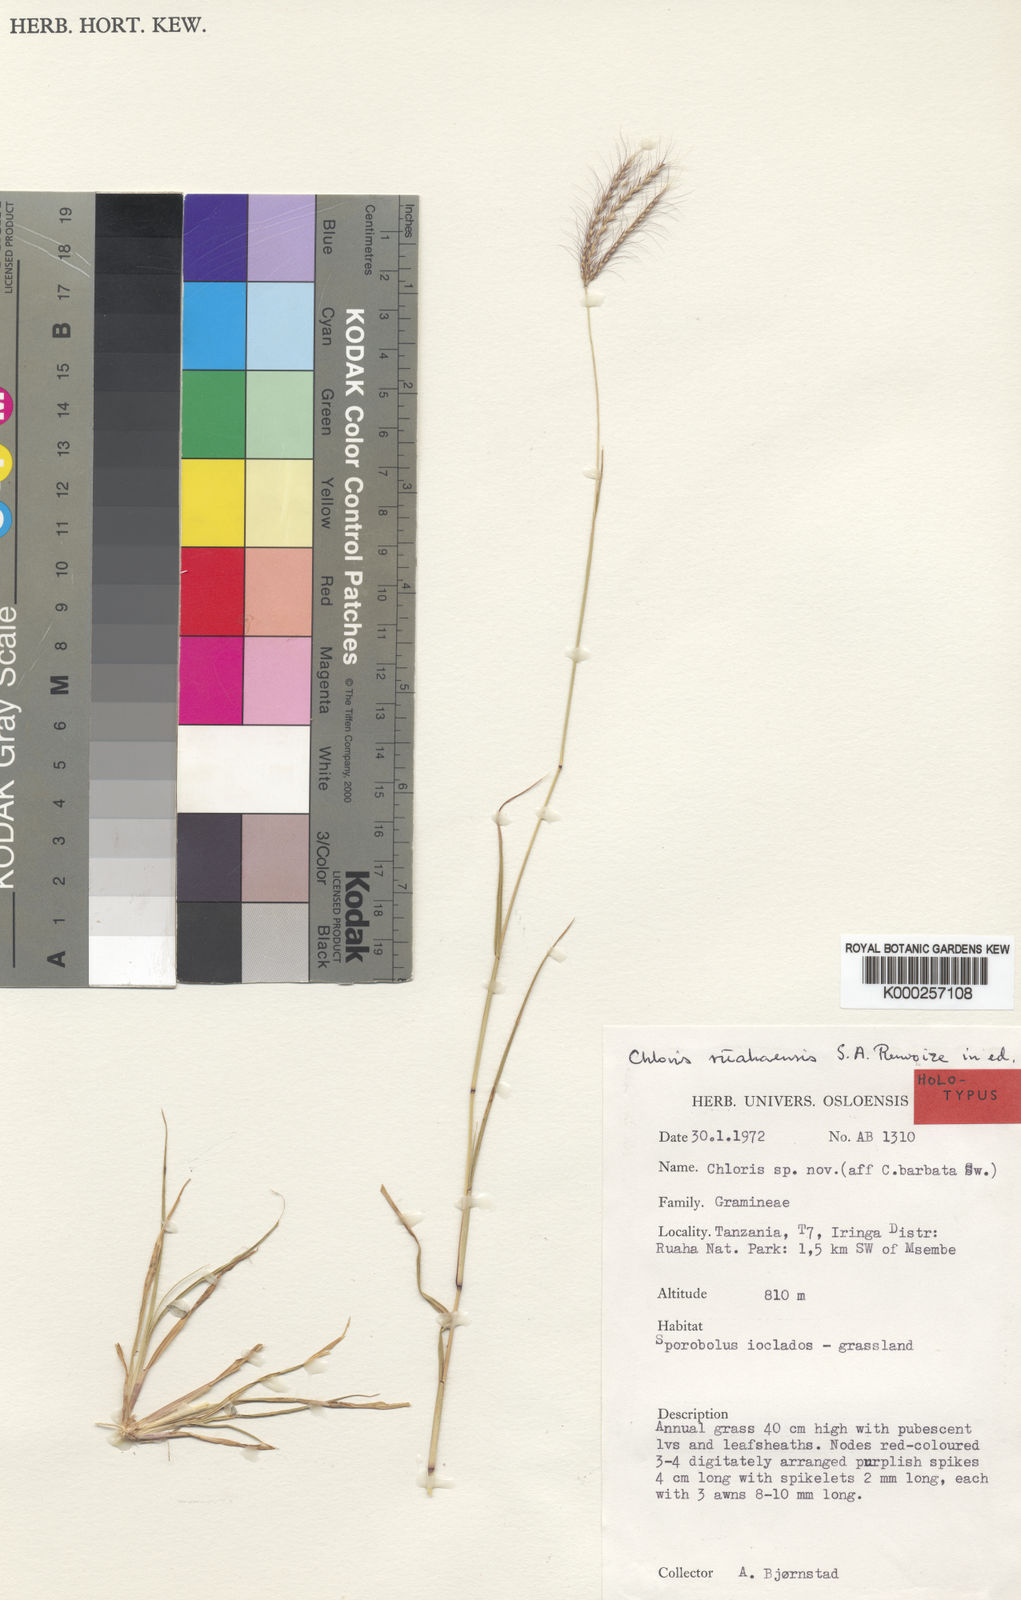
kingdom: Plantae
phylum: Tracheophyta
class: Liliopsida
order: Poales
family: Poaceae
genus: Chloris
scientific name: Chloris ruahensis
